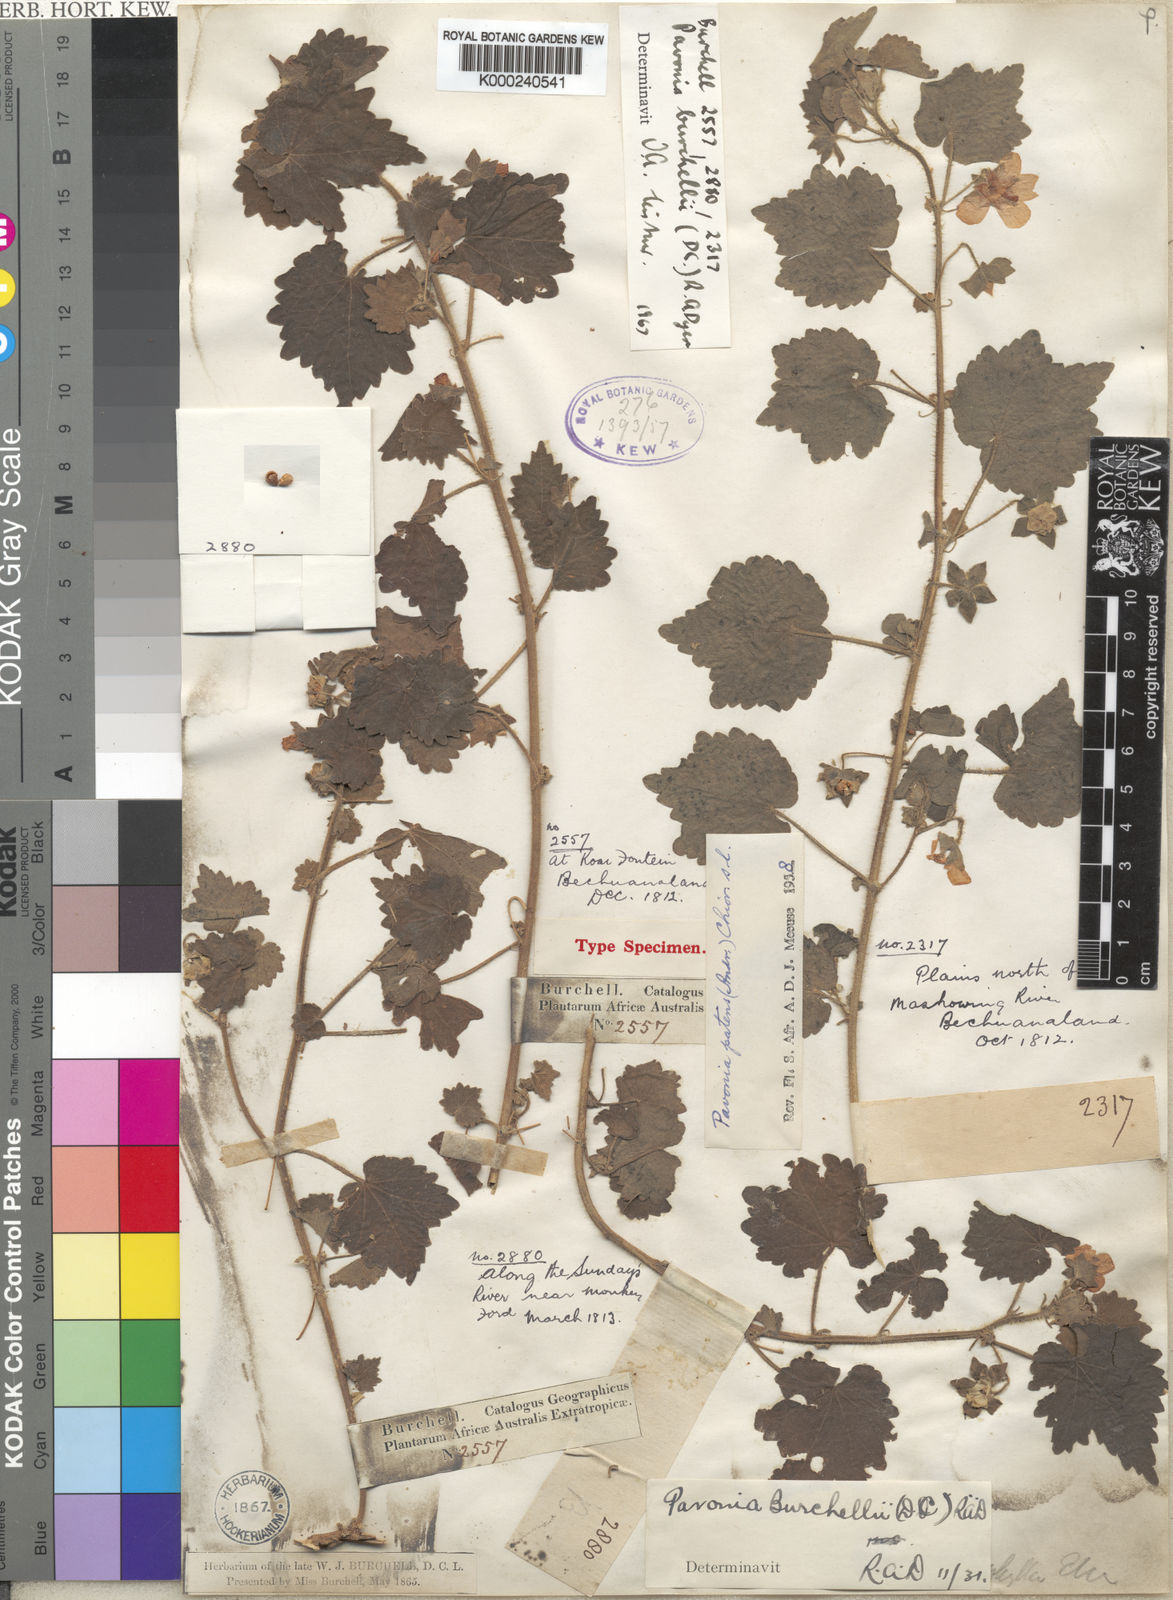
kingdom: Plantae
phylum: Tracheophyta
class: Magnoliopsida
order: Malvales
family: Malvaceae
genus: Pavonia
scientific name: Pavonia burchellii
